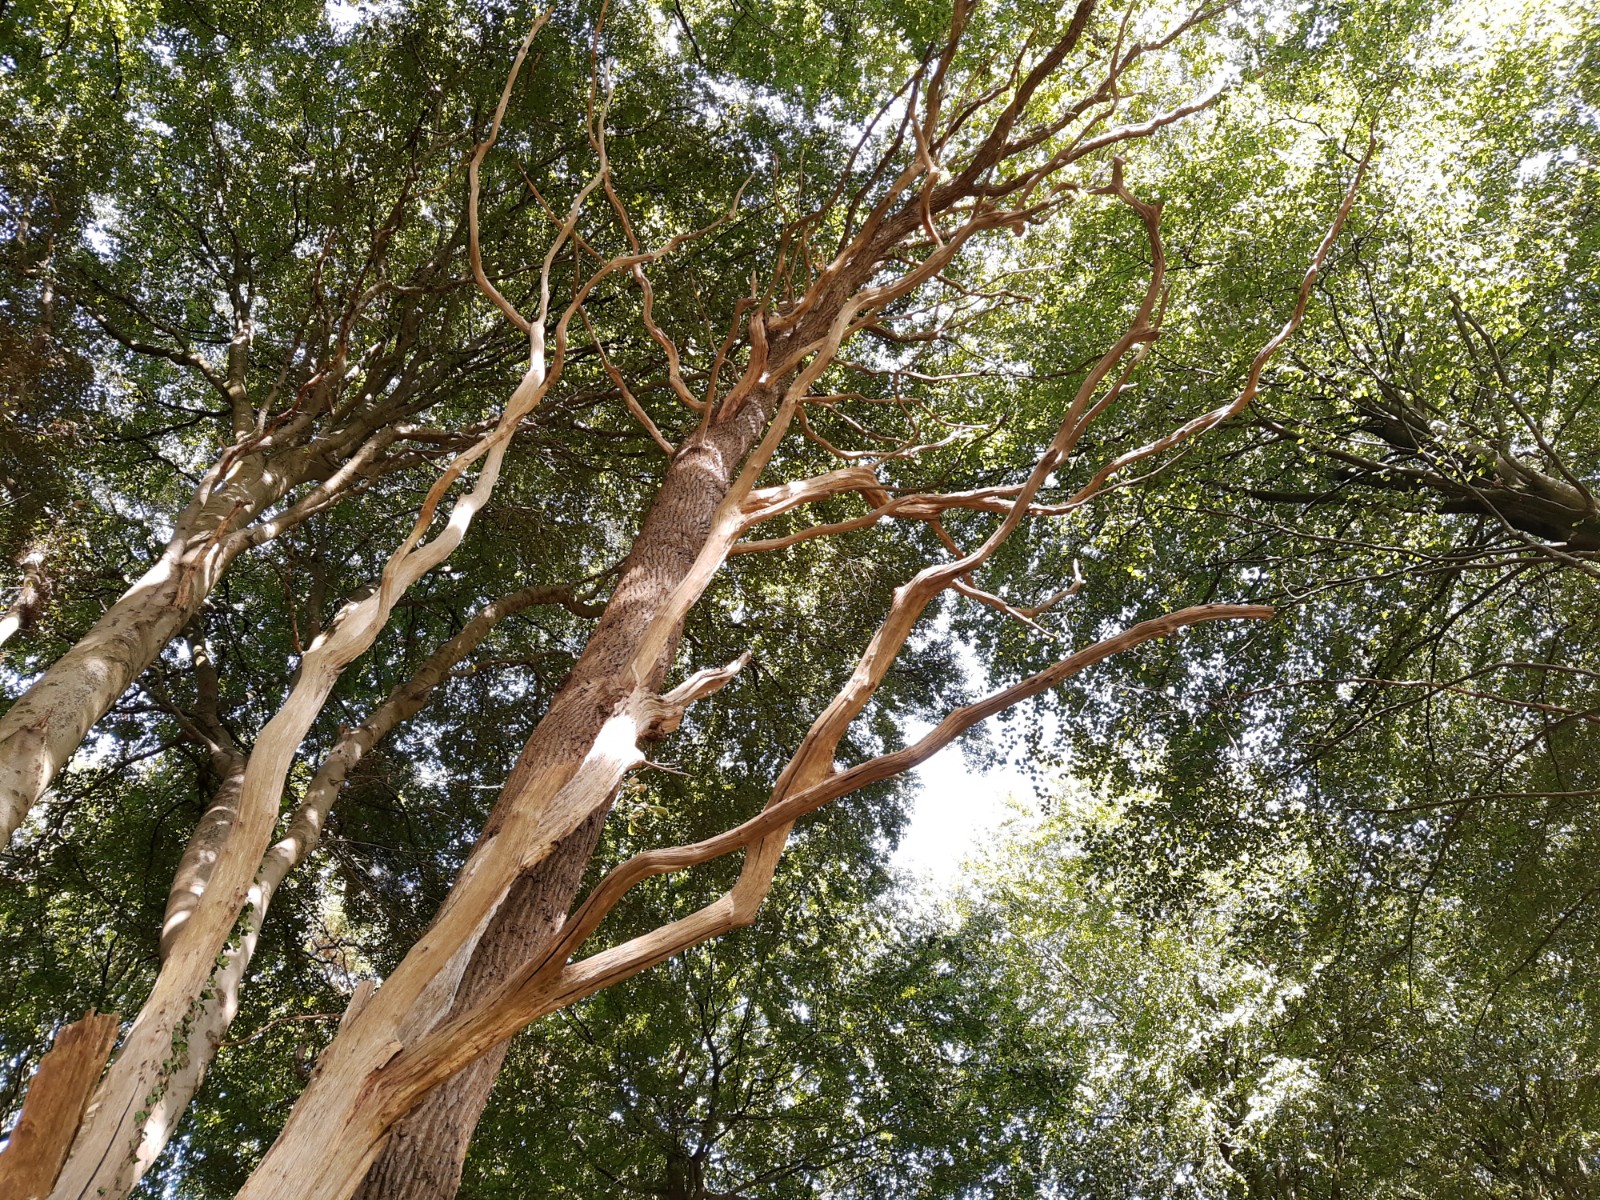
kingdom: Fungi
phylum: Basidiomycota
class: Agaricomycetes
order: Agaricales
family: Fistulinaceae
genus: Fistulina
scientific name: Fistulina hepatica
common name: oksetunge
